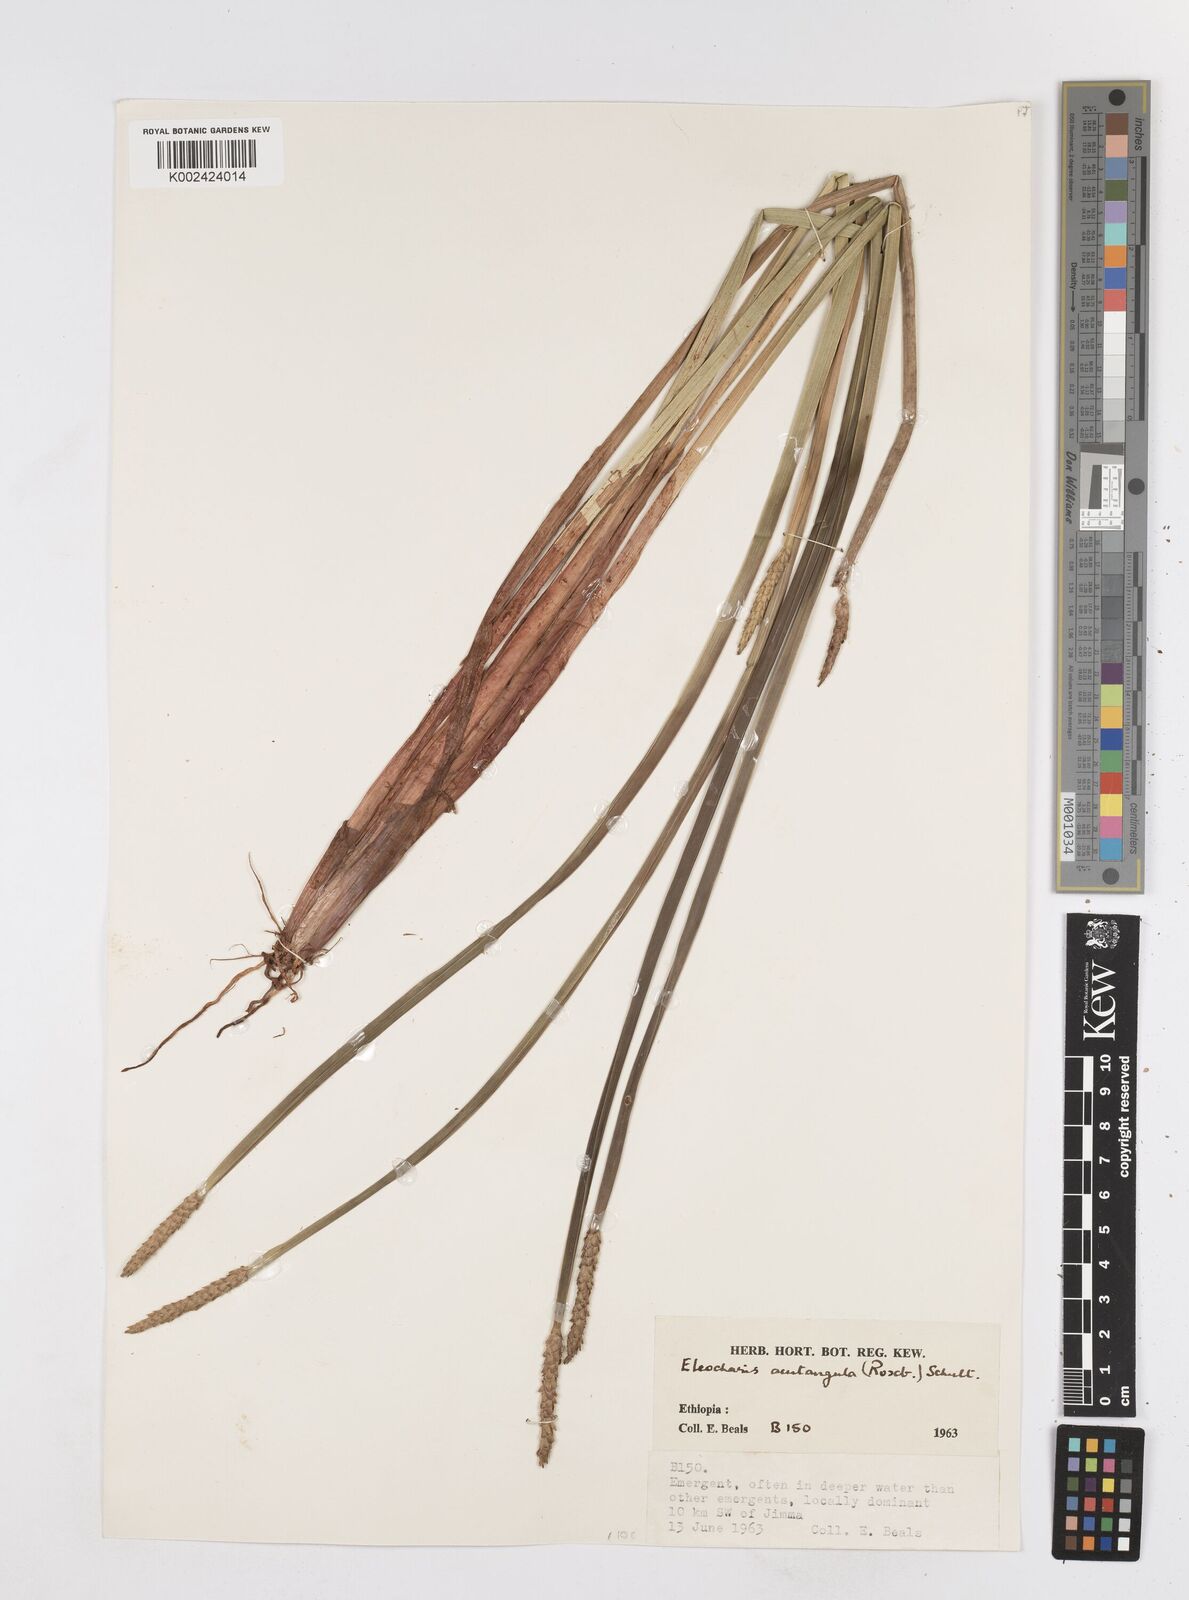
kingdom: Plantae
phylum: Tracheophyta
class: Liliopsida
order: Poales
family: Cyperaceae
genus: Eleocharis
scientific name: Eleocharis acutangula
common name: Acute spikerush
